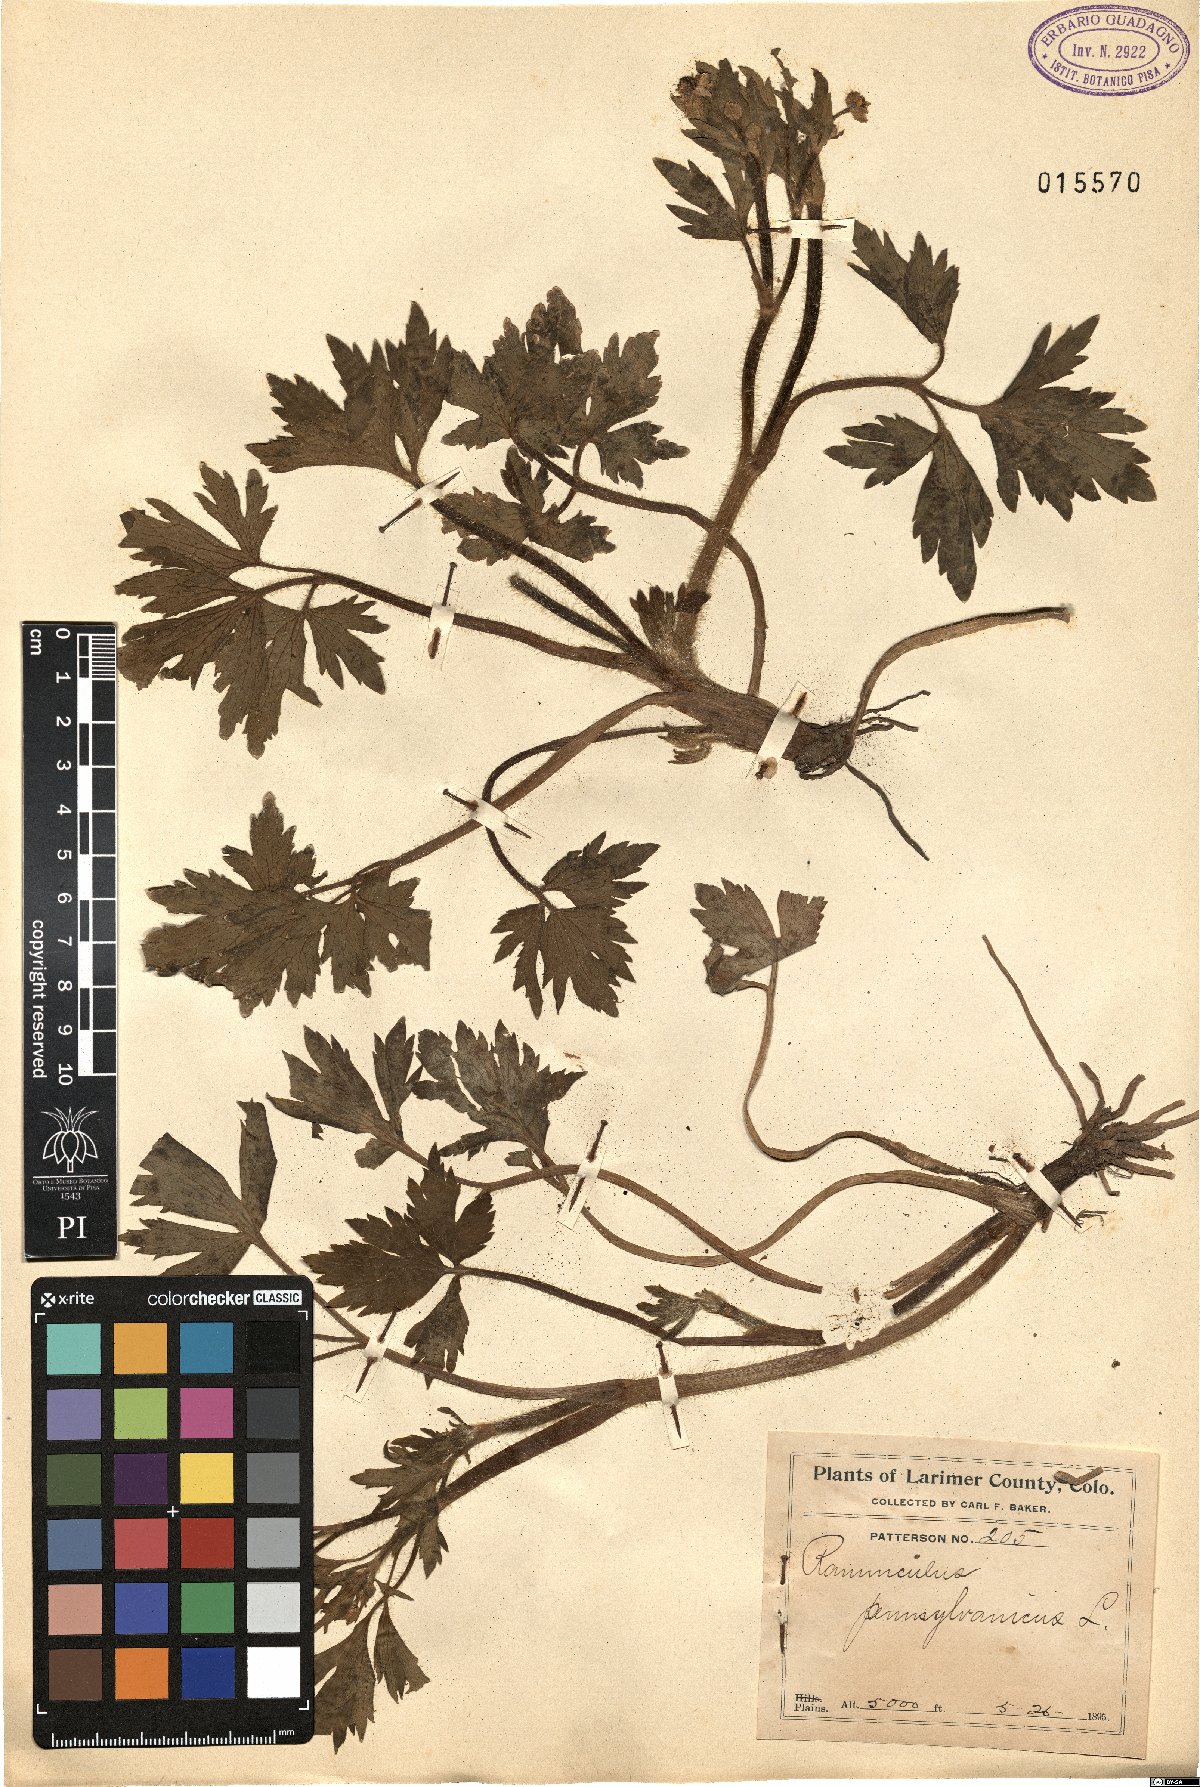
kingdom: Plantae
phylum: Tracheophyta
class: Magnoliopsida
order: Ranunculales
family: Ranunculaceae
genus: Ranunculus
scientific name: Ranunculus pensylvanicus
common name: Bristly buttercup
